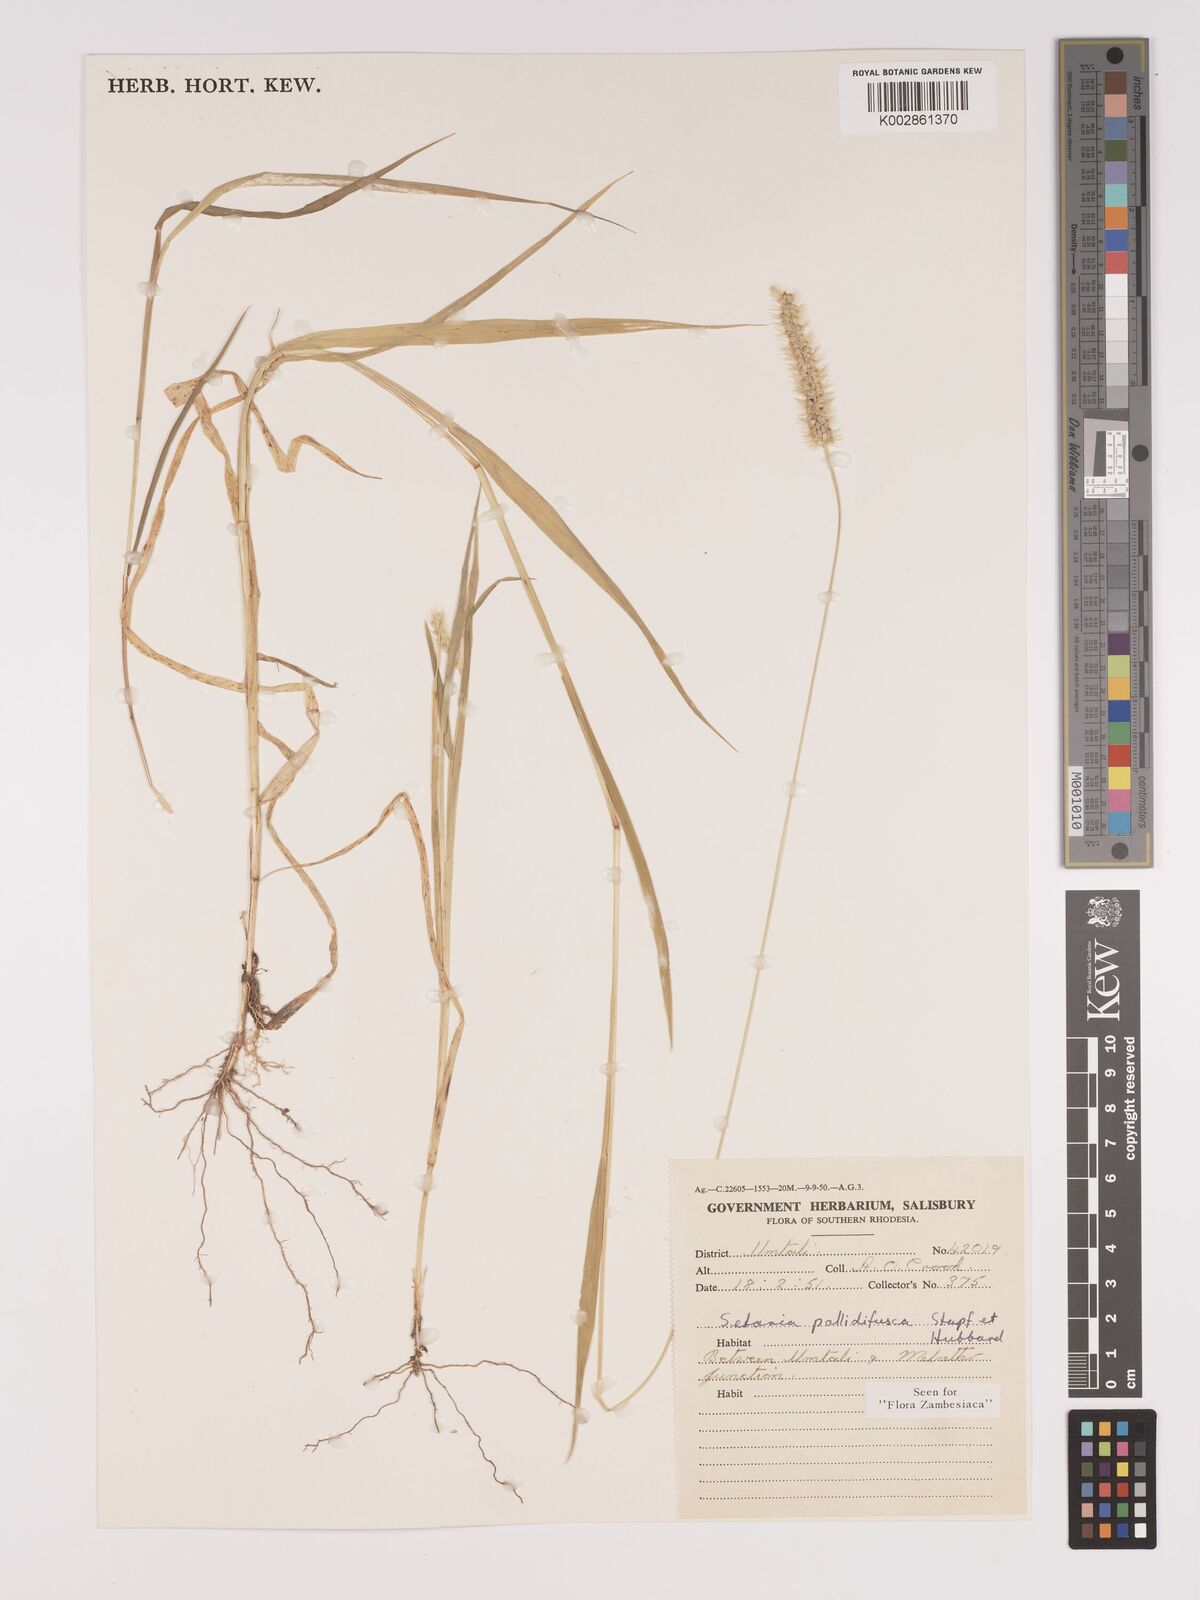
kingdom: Plantae
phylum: Tracheophyta
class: Liliopsida
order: Poales
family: Poaceae
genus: Setaria
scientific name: Setaria pumila
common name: Yellow bristle-grass
